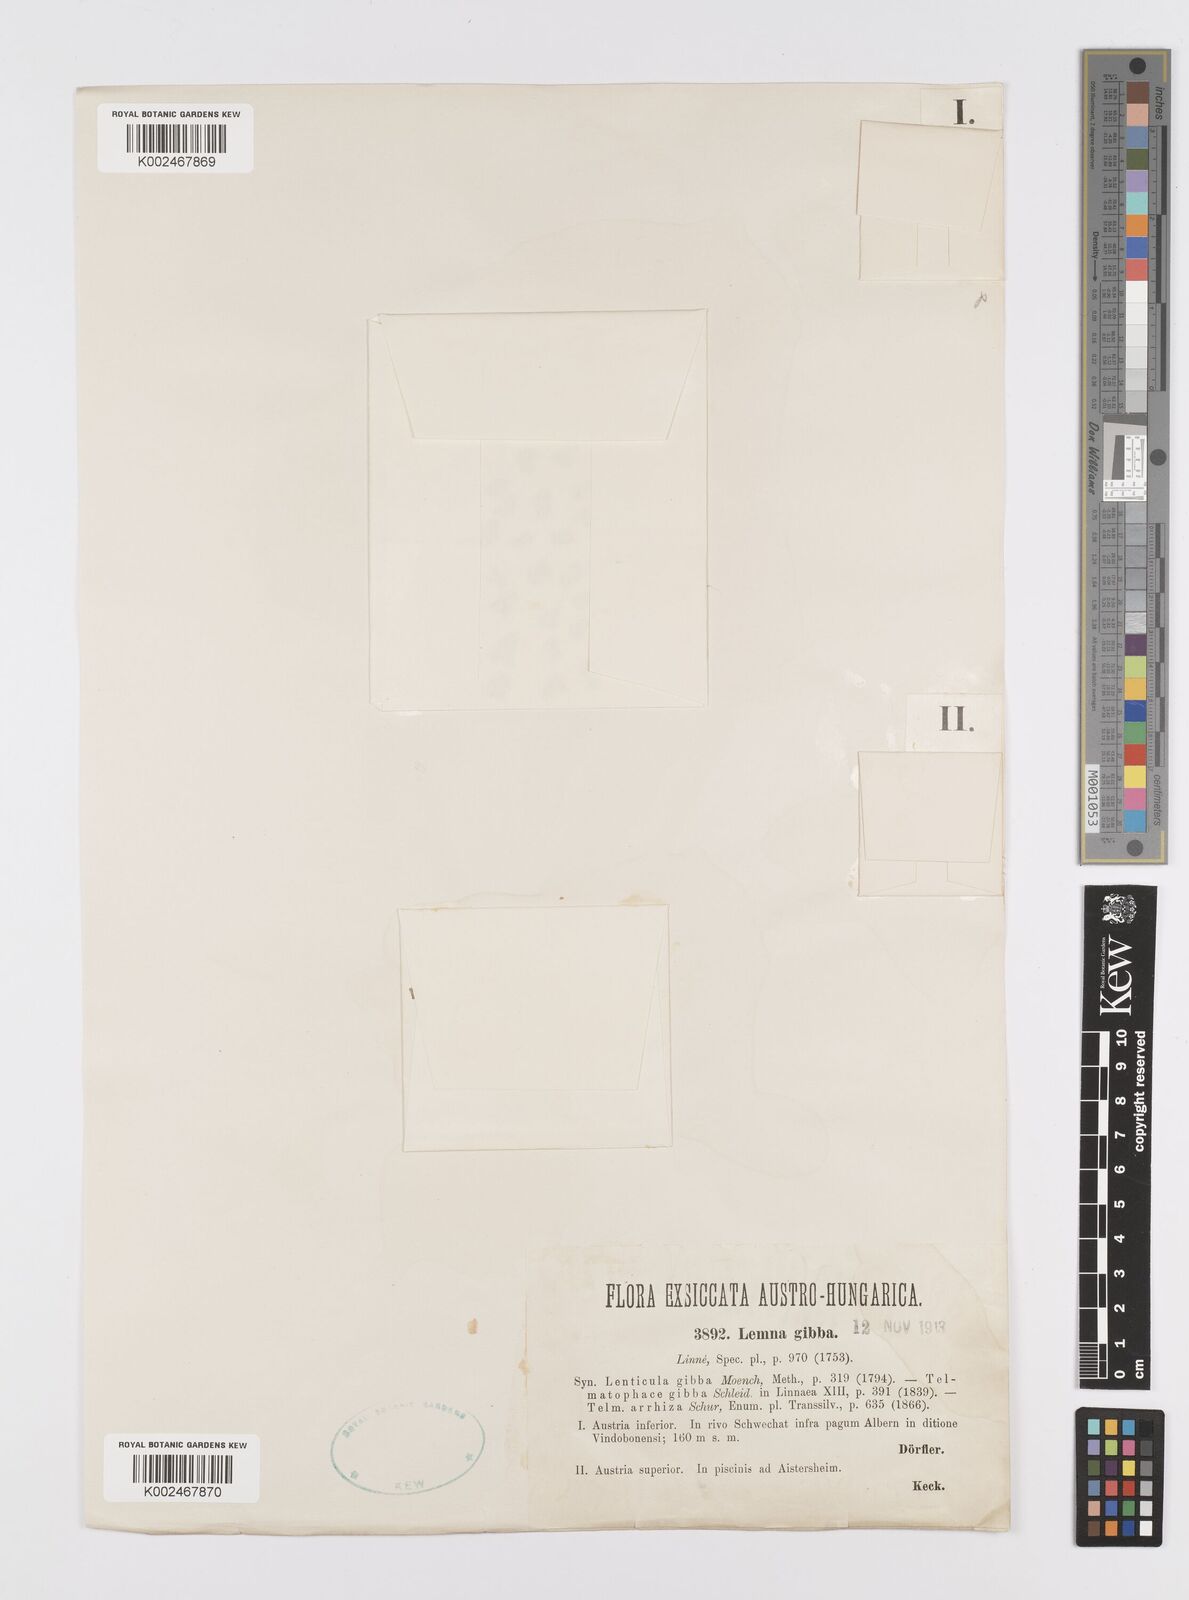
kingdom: Plantae
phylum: Tracheophyta
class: Liliopsida
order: Alismatales
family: Araceae
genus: Lemna
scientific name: Lemna gibba
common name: Fat duckweed
